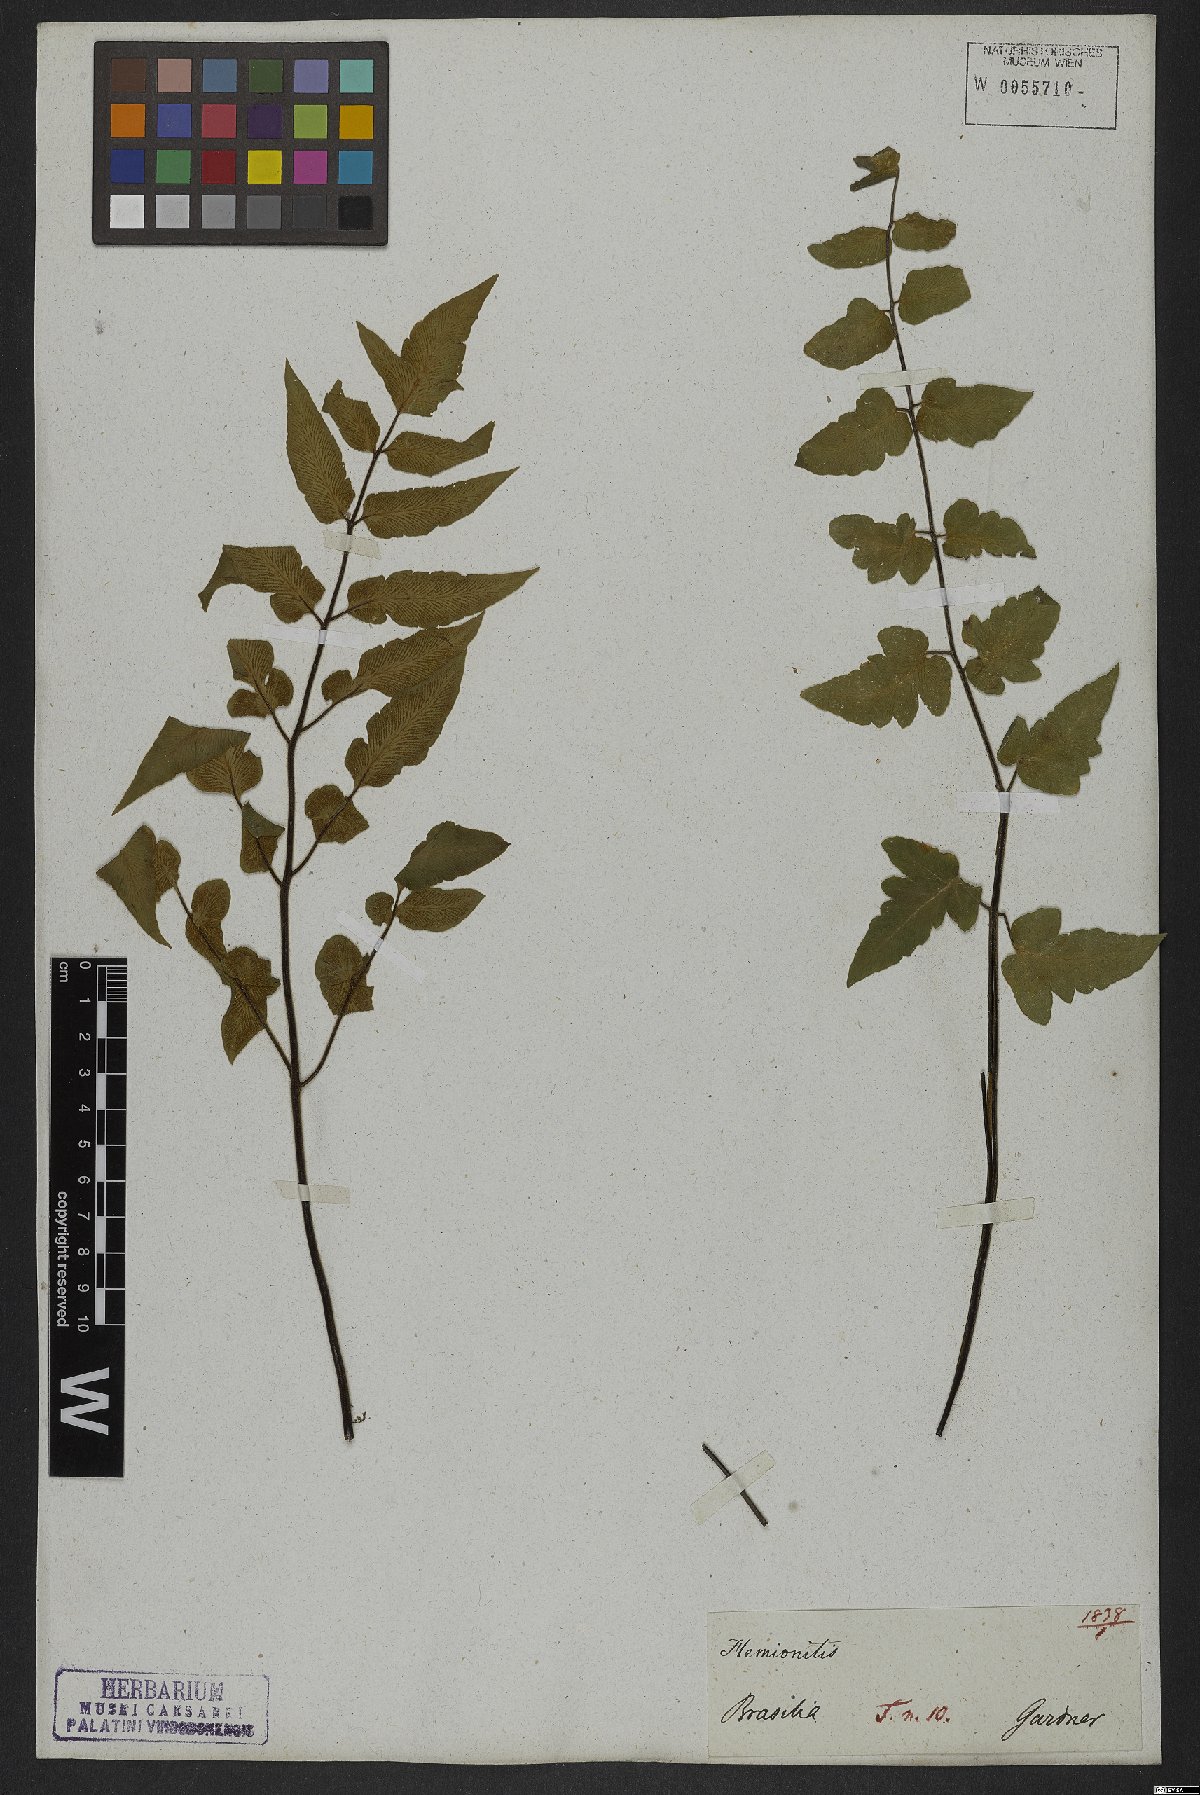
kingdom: Plantae
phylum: Tracheophyta
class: Polypodiopsida
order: Polypodiales
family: Pteridaceae
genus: Hemionitis
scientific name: Hemionitis tomentosa
